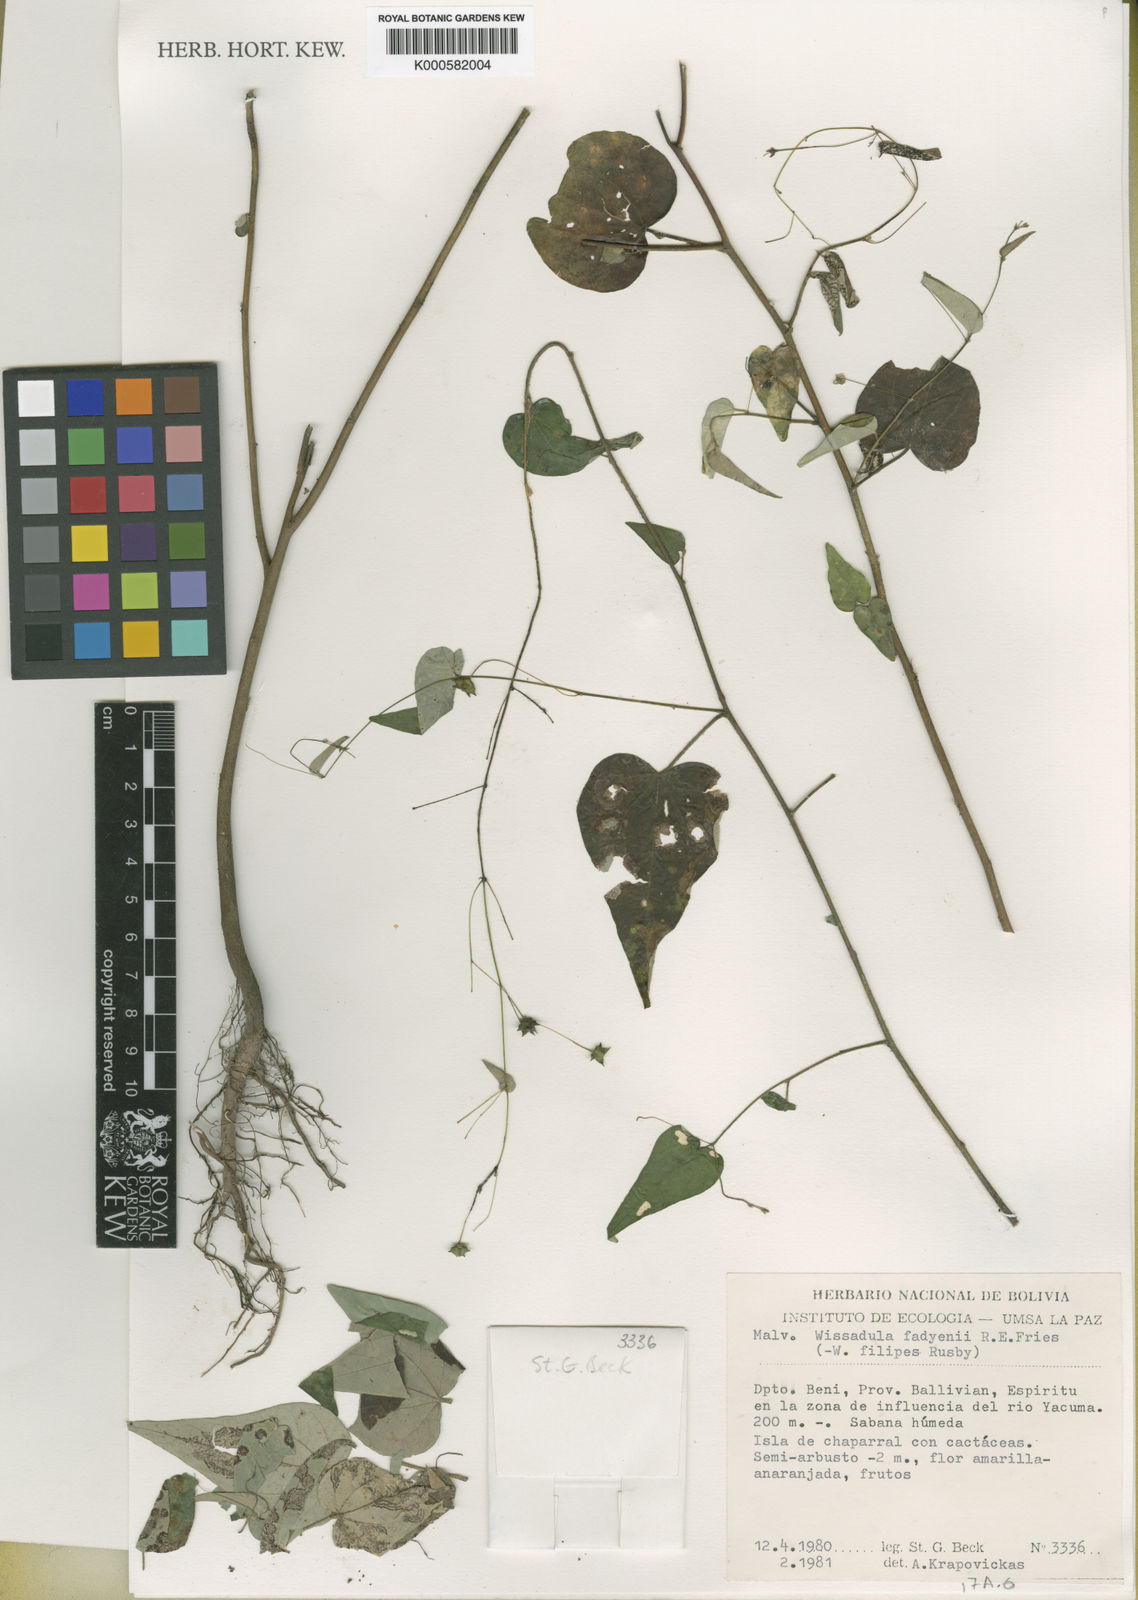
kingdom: Plantae
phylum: Tracheophyta
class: Magnoliopsida
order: Malvales
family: Malvaceae
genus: Wissadula
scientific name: Wissadula fadyenii
